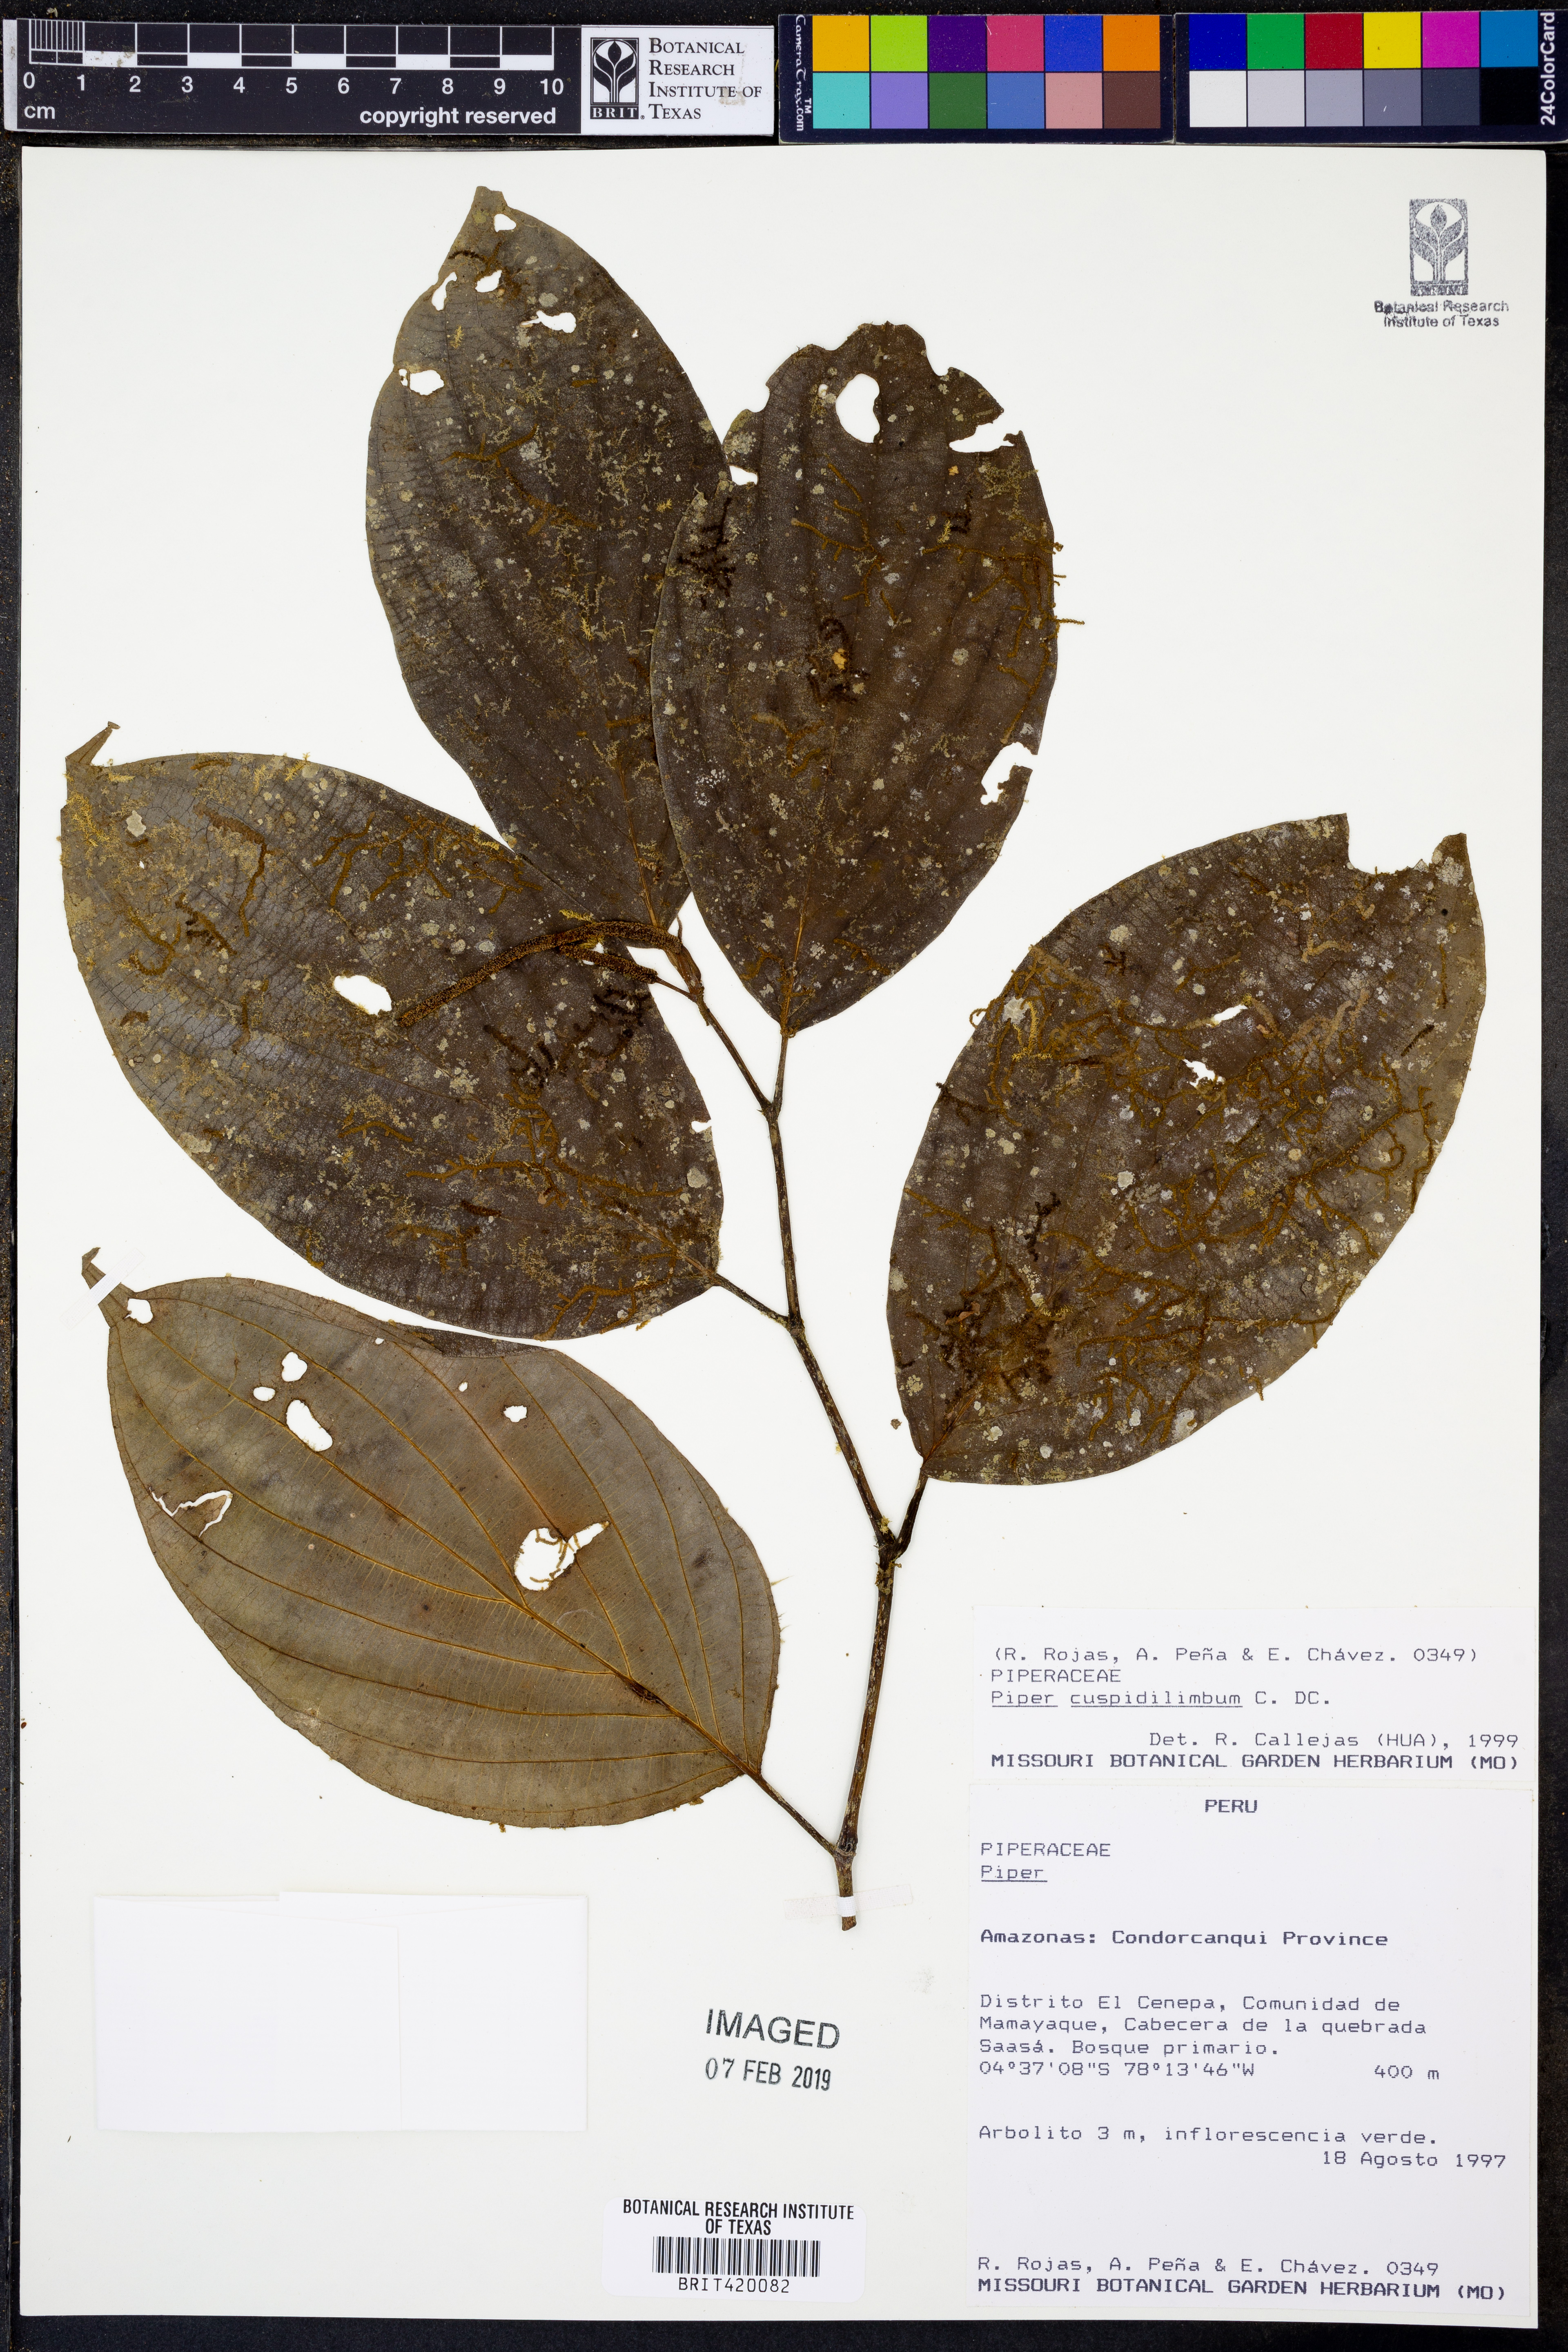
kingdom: Plantae
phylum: Tracheophyta
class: Magnoliopsida
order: Piperales
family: Piperaceae
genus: Piper
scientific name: Piper cuspidilimbum
